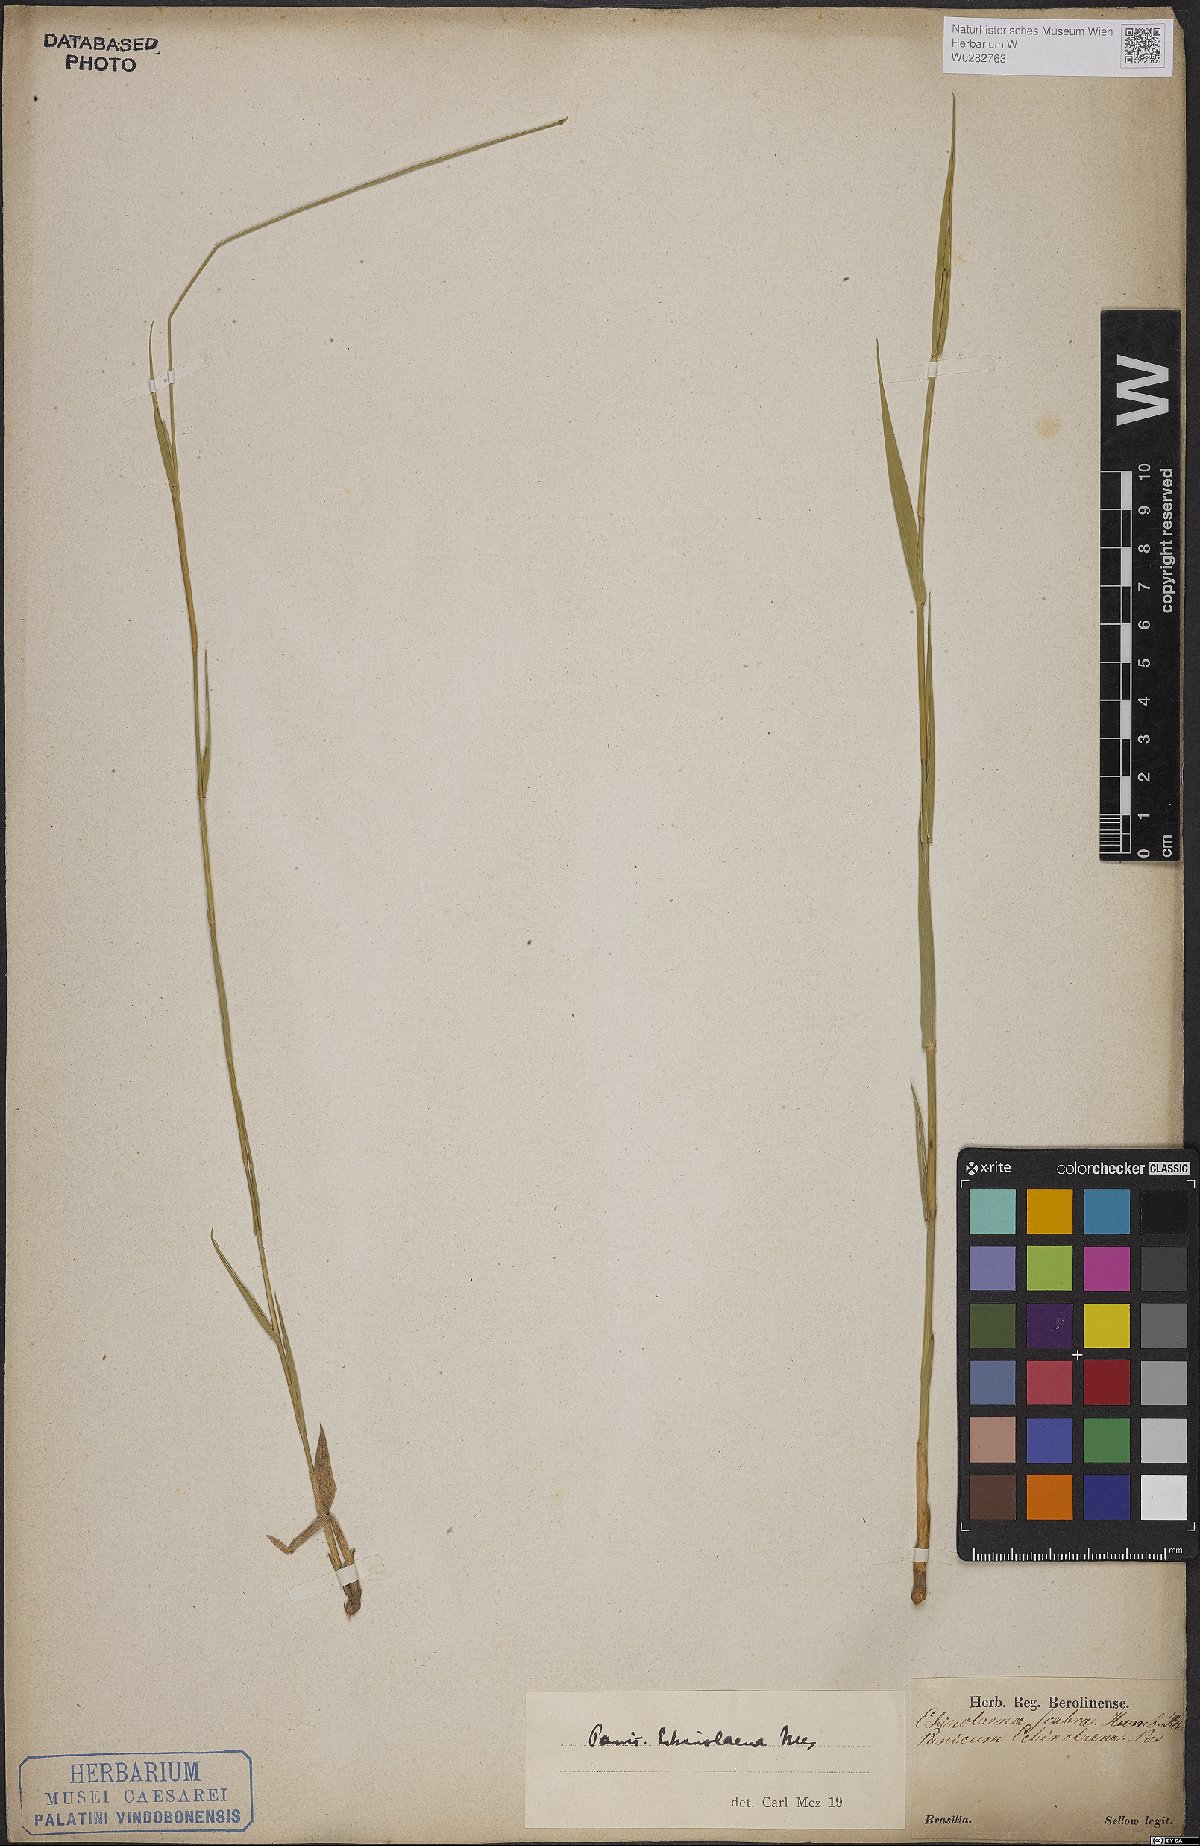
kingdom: Plantae
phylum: Tracheophyta
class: Liliopsida
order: Poales
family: Poaceae
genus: Echinolaena
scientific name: Echinolaena inflexa
